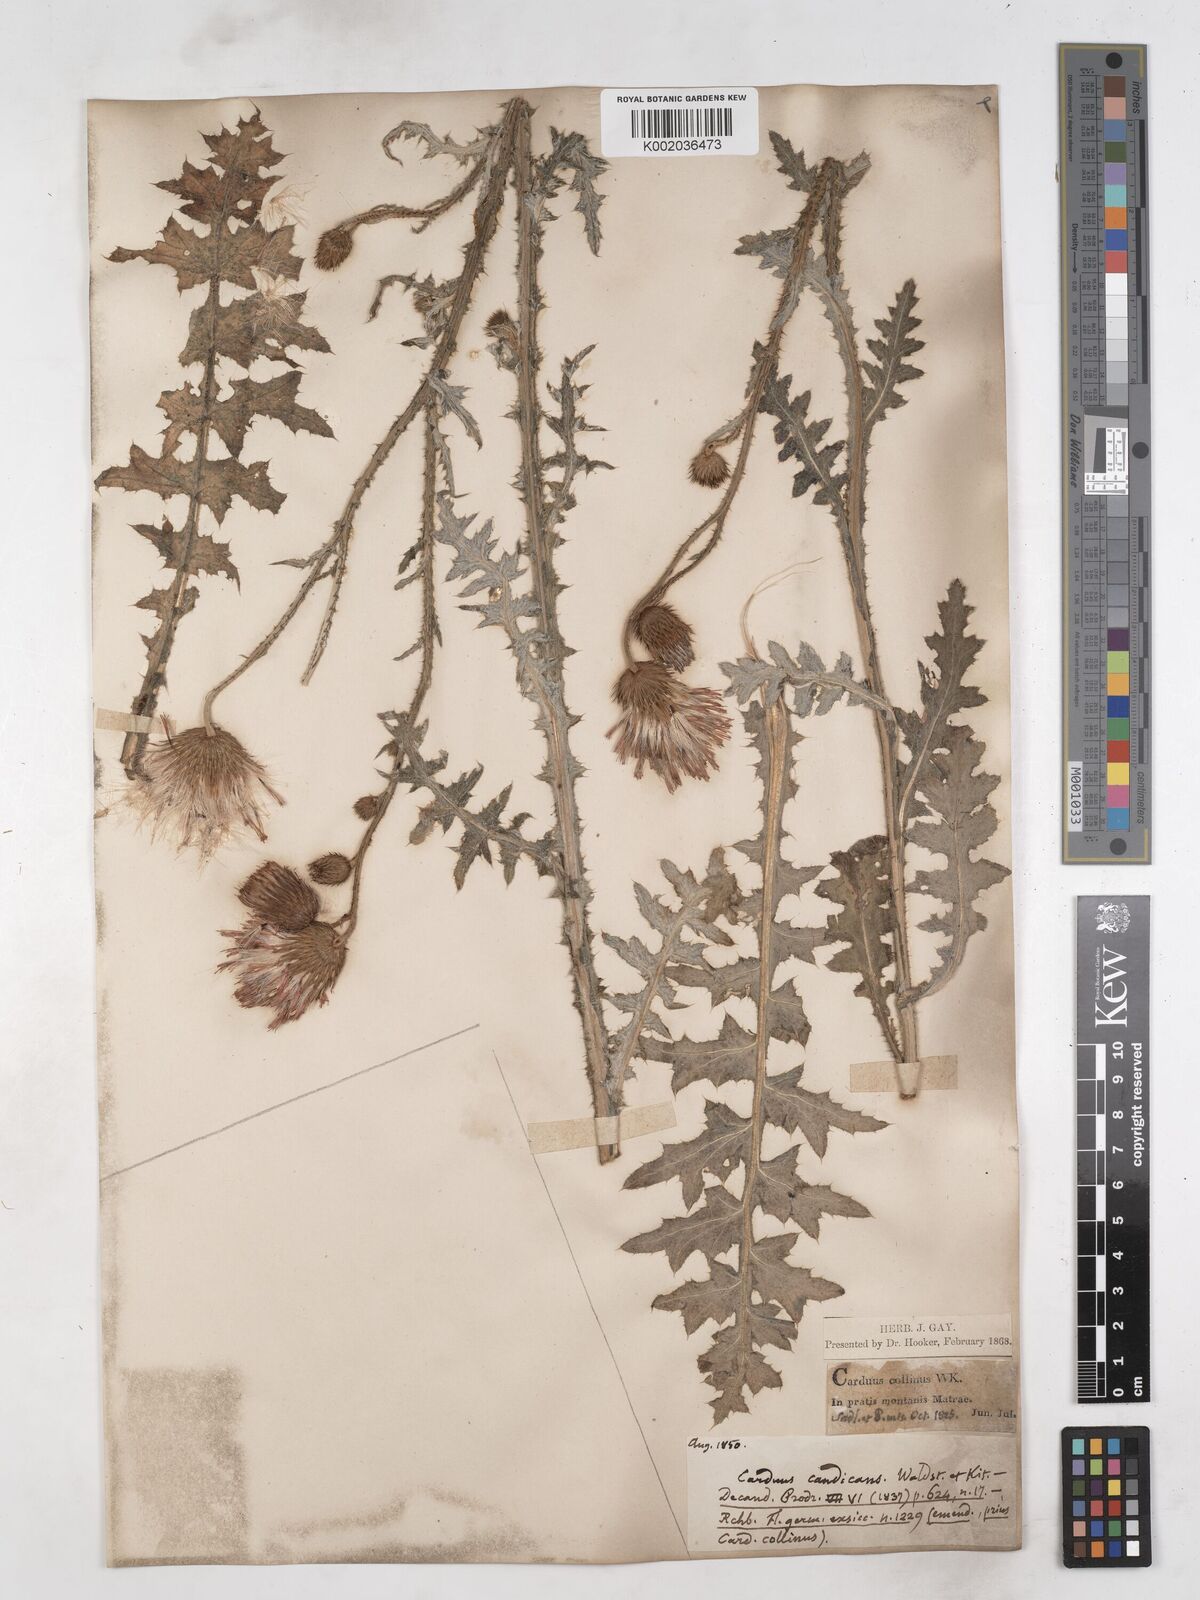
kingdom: Plantae
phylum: Tracheophyta
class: Magnoliopsida
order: Asterales
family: Asteraceae
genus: Carduus
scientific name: Carduus candicans
